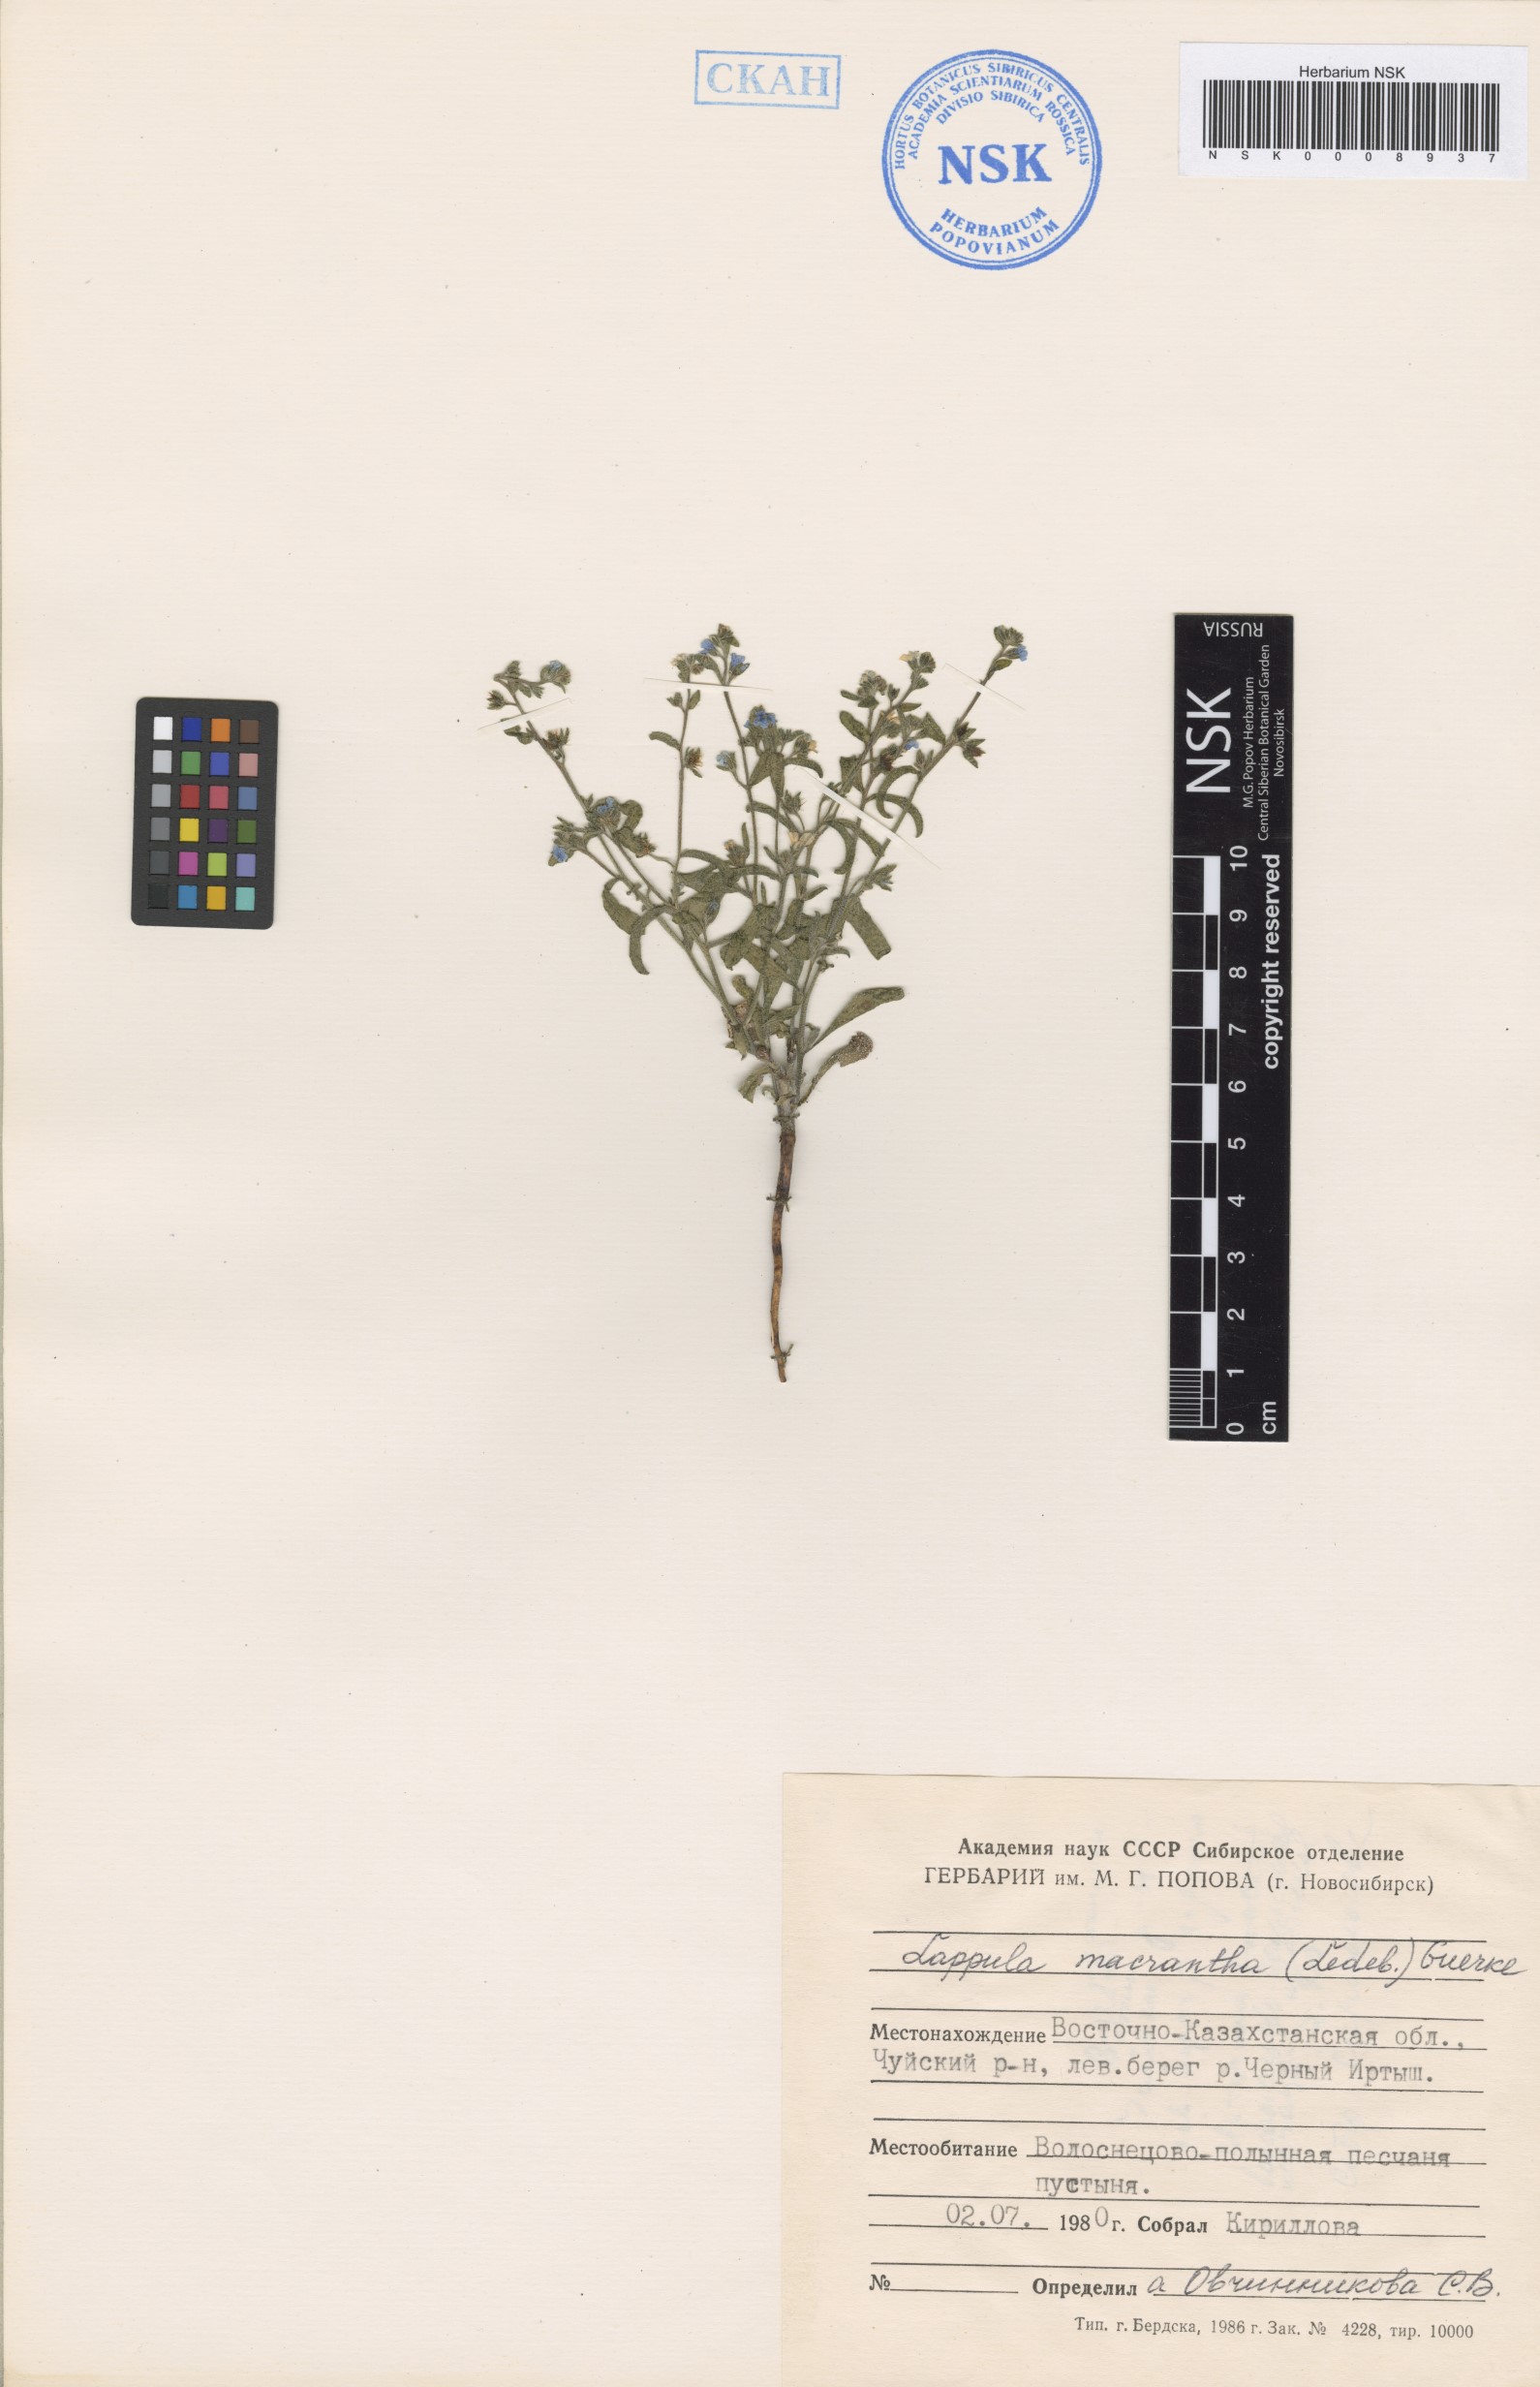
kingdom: Plantae
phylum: Tracheophyta
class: Magnoliopsida
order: Boraginales
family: Boraginaceae
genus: Lappula
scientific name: Lappula macrantha
